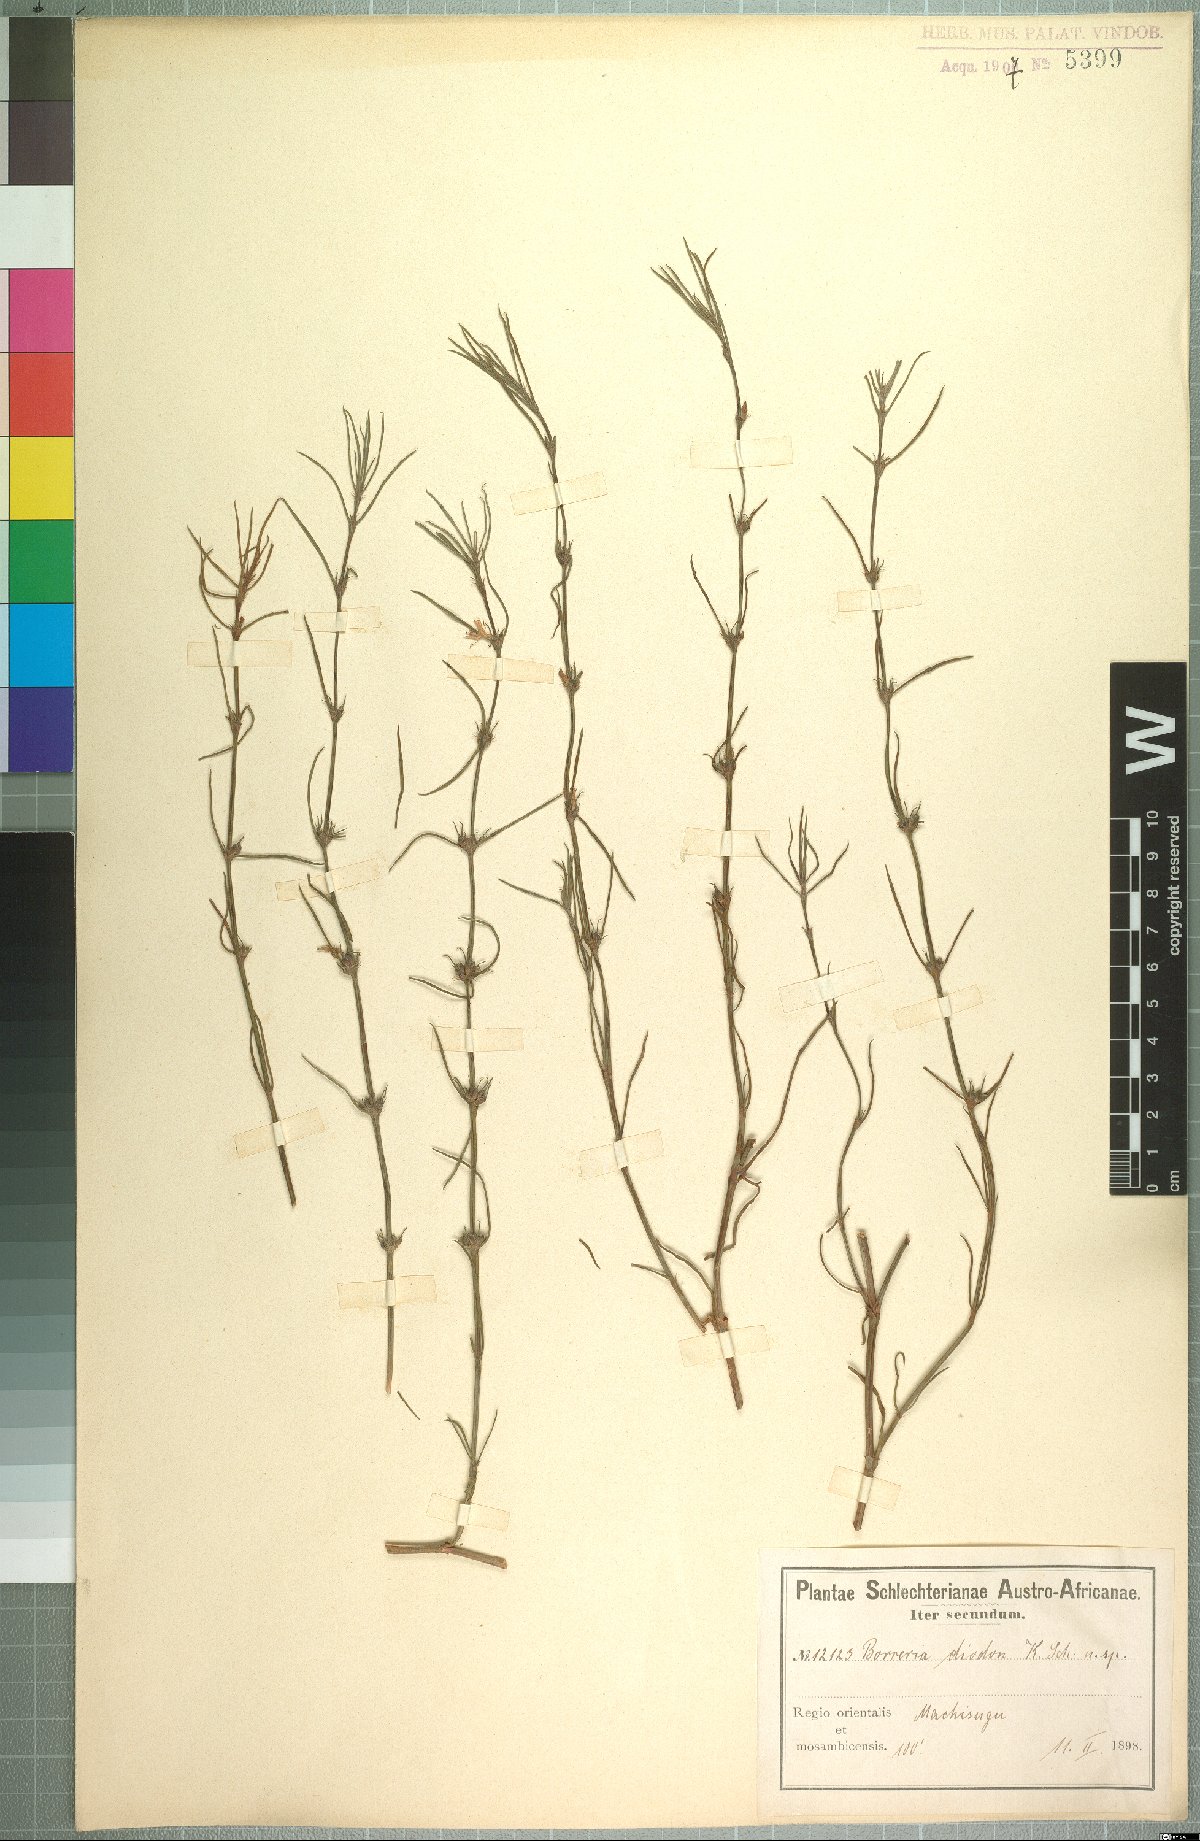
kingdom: Plantae
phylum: Tracheophyta
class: Magnoliopsida
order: Gentianales
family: Rubiaceae
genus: Spermacoce
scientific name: Spermacoce kirkii
